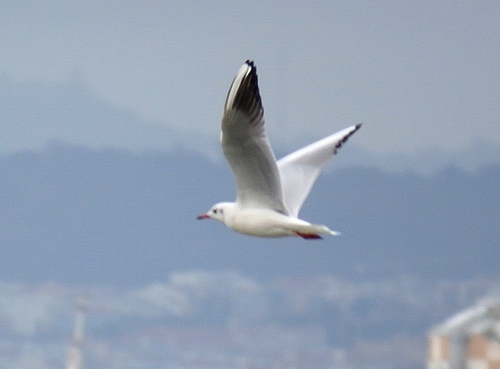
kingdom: Animalia
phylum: Chordata
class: Aves
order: Charadriiformes
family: Laridae
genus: Chroicocephalus
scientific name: Chroicocephalus ridibundus
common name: Black-headed gull
